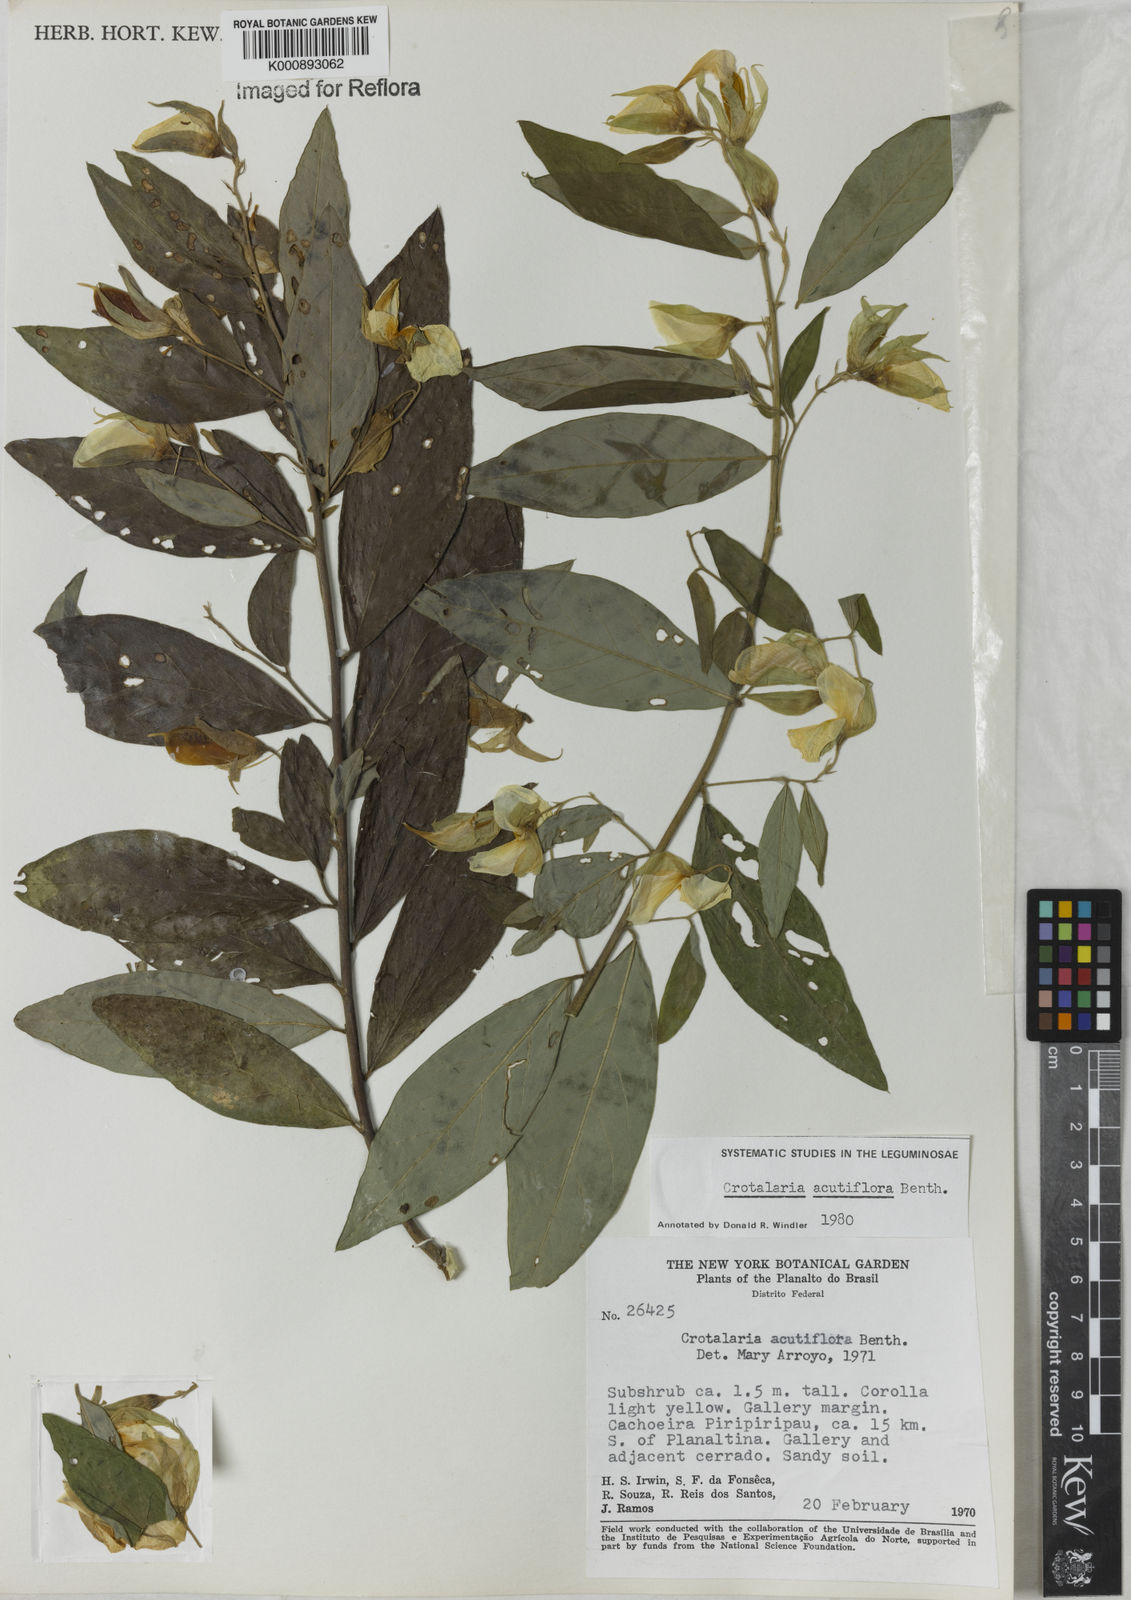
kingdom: Plantae
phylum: Tracheophyta
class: Magnoliopsida
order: Fabales
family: Fabaceae
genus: Crotalaria
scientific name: Crotalaria grandiflora
